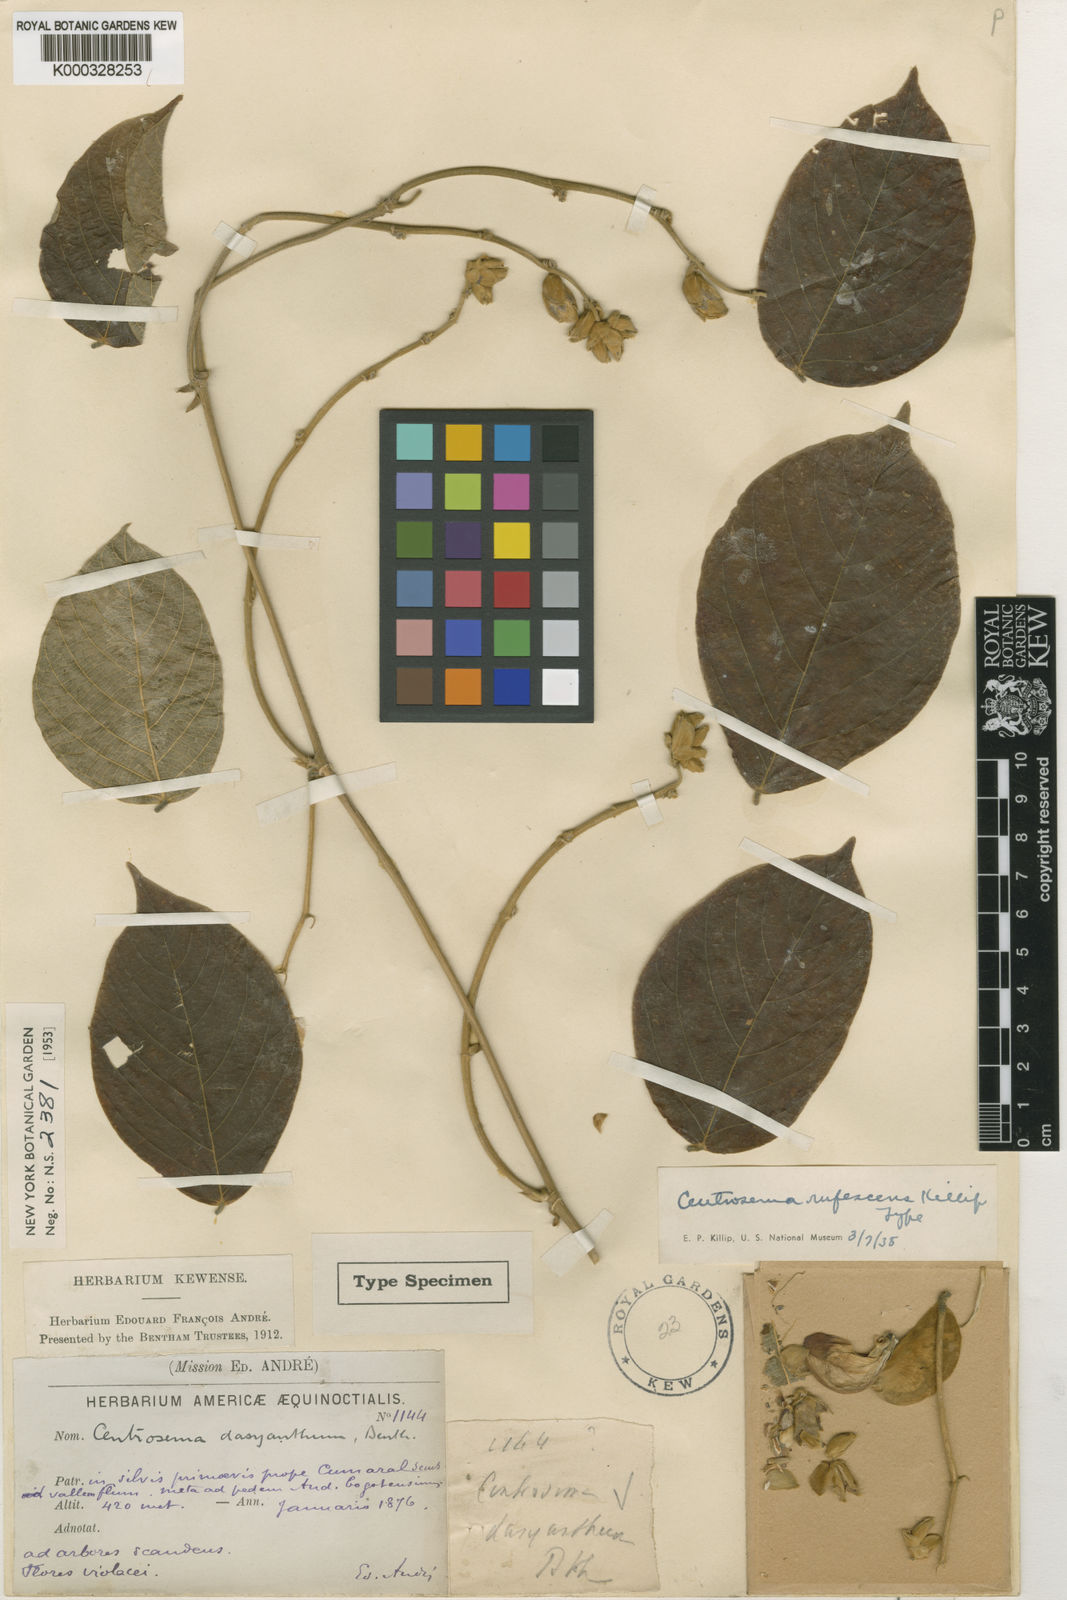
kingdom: Plantae
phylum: Tracheophyta
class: Magnoliopsida
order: Fabales
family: Fabaceae
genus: Centrosema
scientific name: Centrosema bellum
